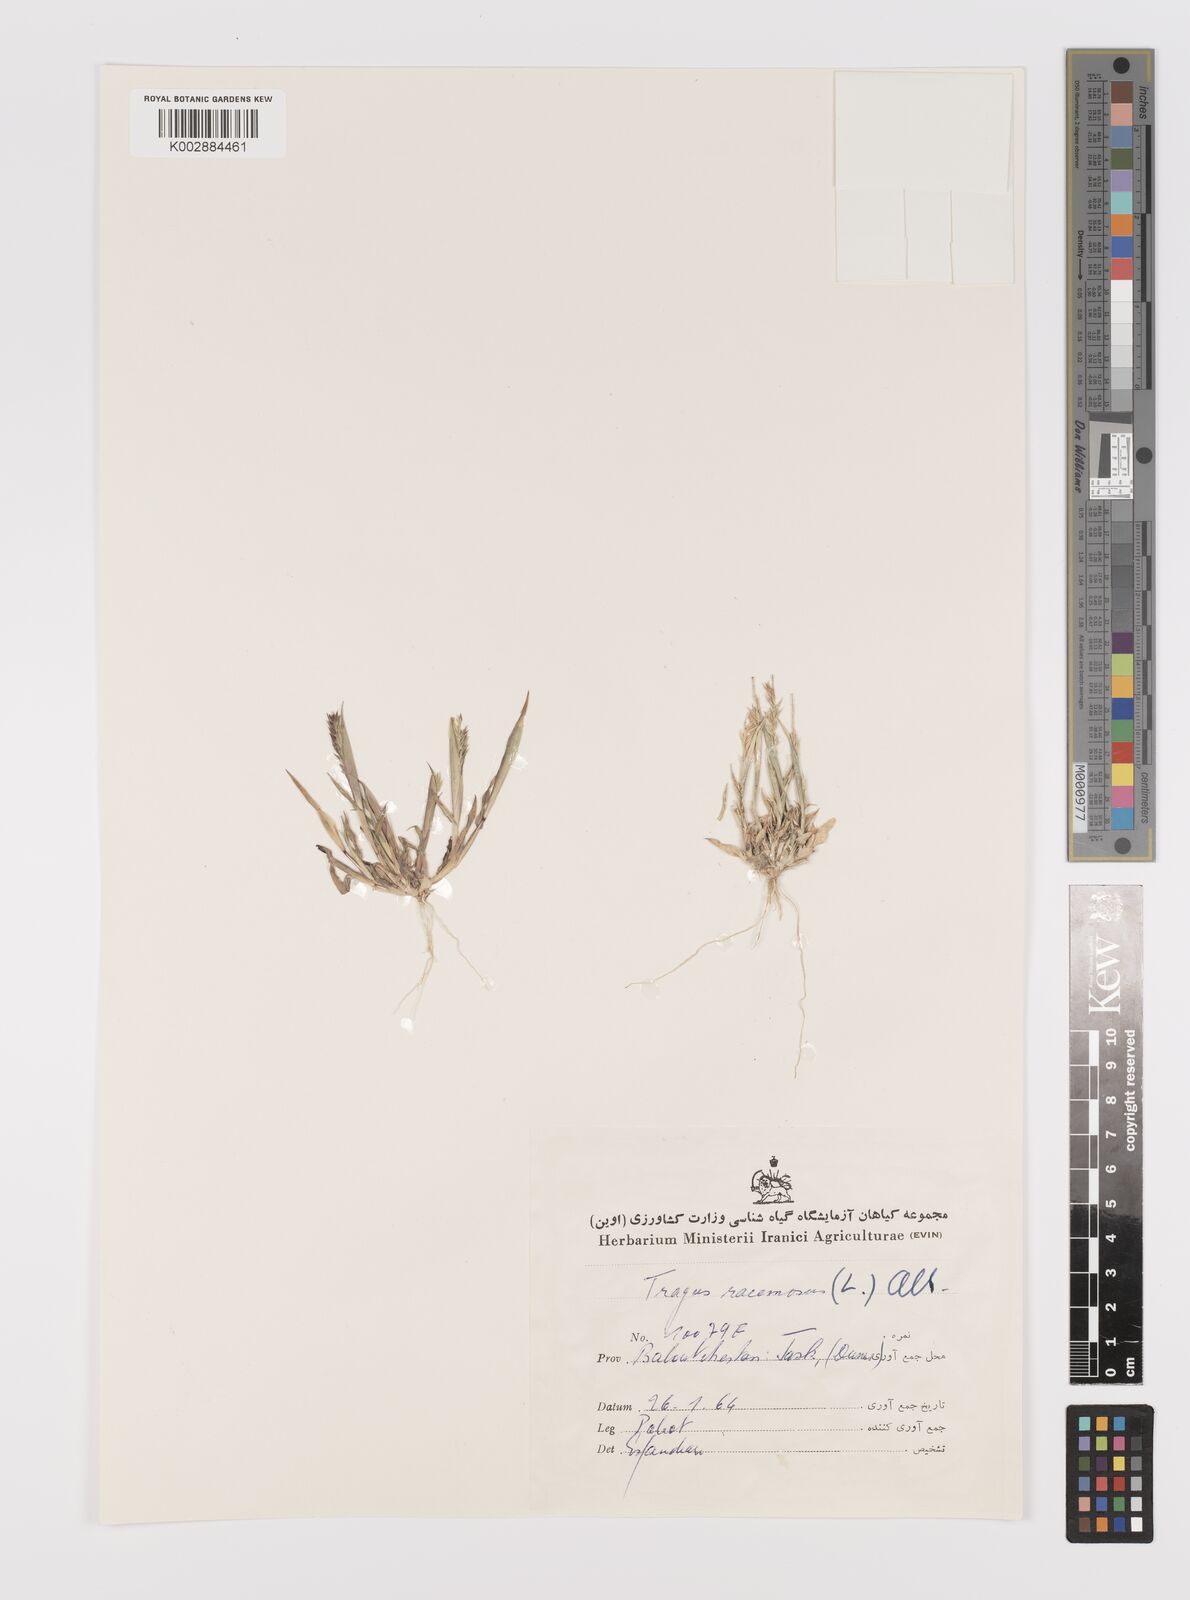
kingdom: Plantae
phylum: Tracheophyta
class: Liliopsida
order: Poales
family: Poaceae
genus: Tragus
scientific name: Tragus racemosus
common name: European bur-grass
